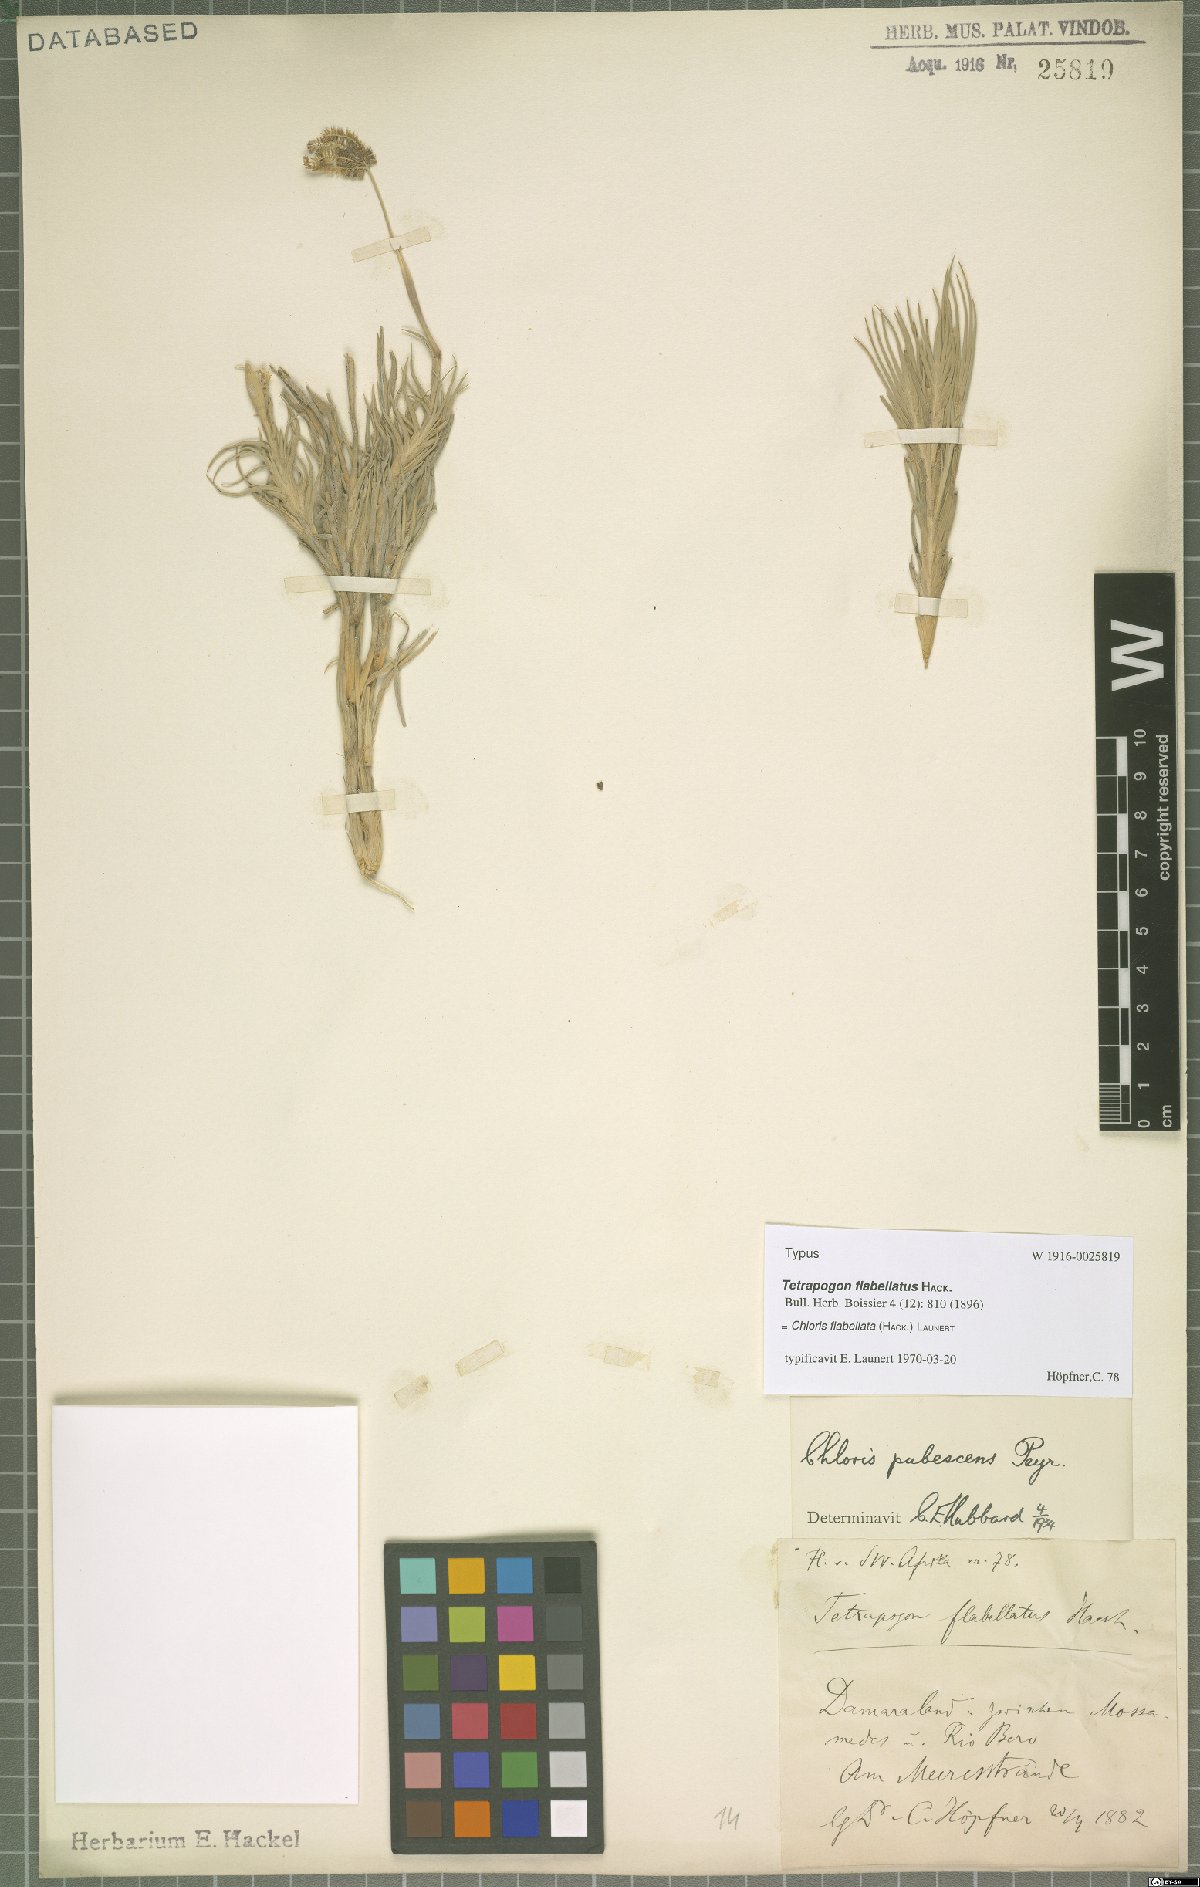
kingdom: Plantae
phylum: Tracheophyta
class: Liliopsida
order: Poales
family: Poaceae
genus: Chloris
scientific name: Chloris flabellata
